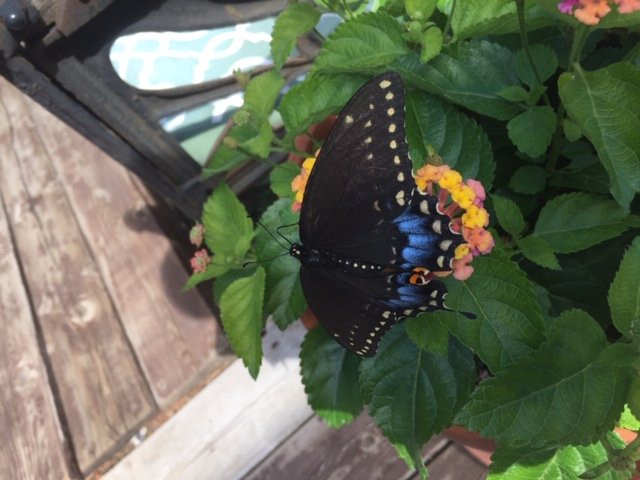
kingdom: Animalia
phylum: Arthropoda
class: Insecta
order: Lepidoptera
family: Papilionidae
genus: Papilio
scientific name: Papilio polyxenes
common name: Black Swallowtail
